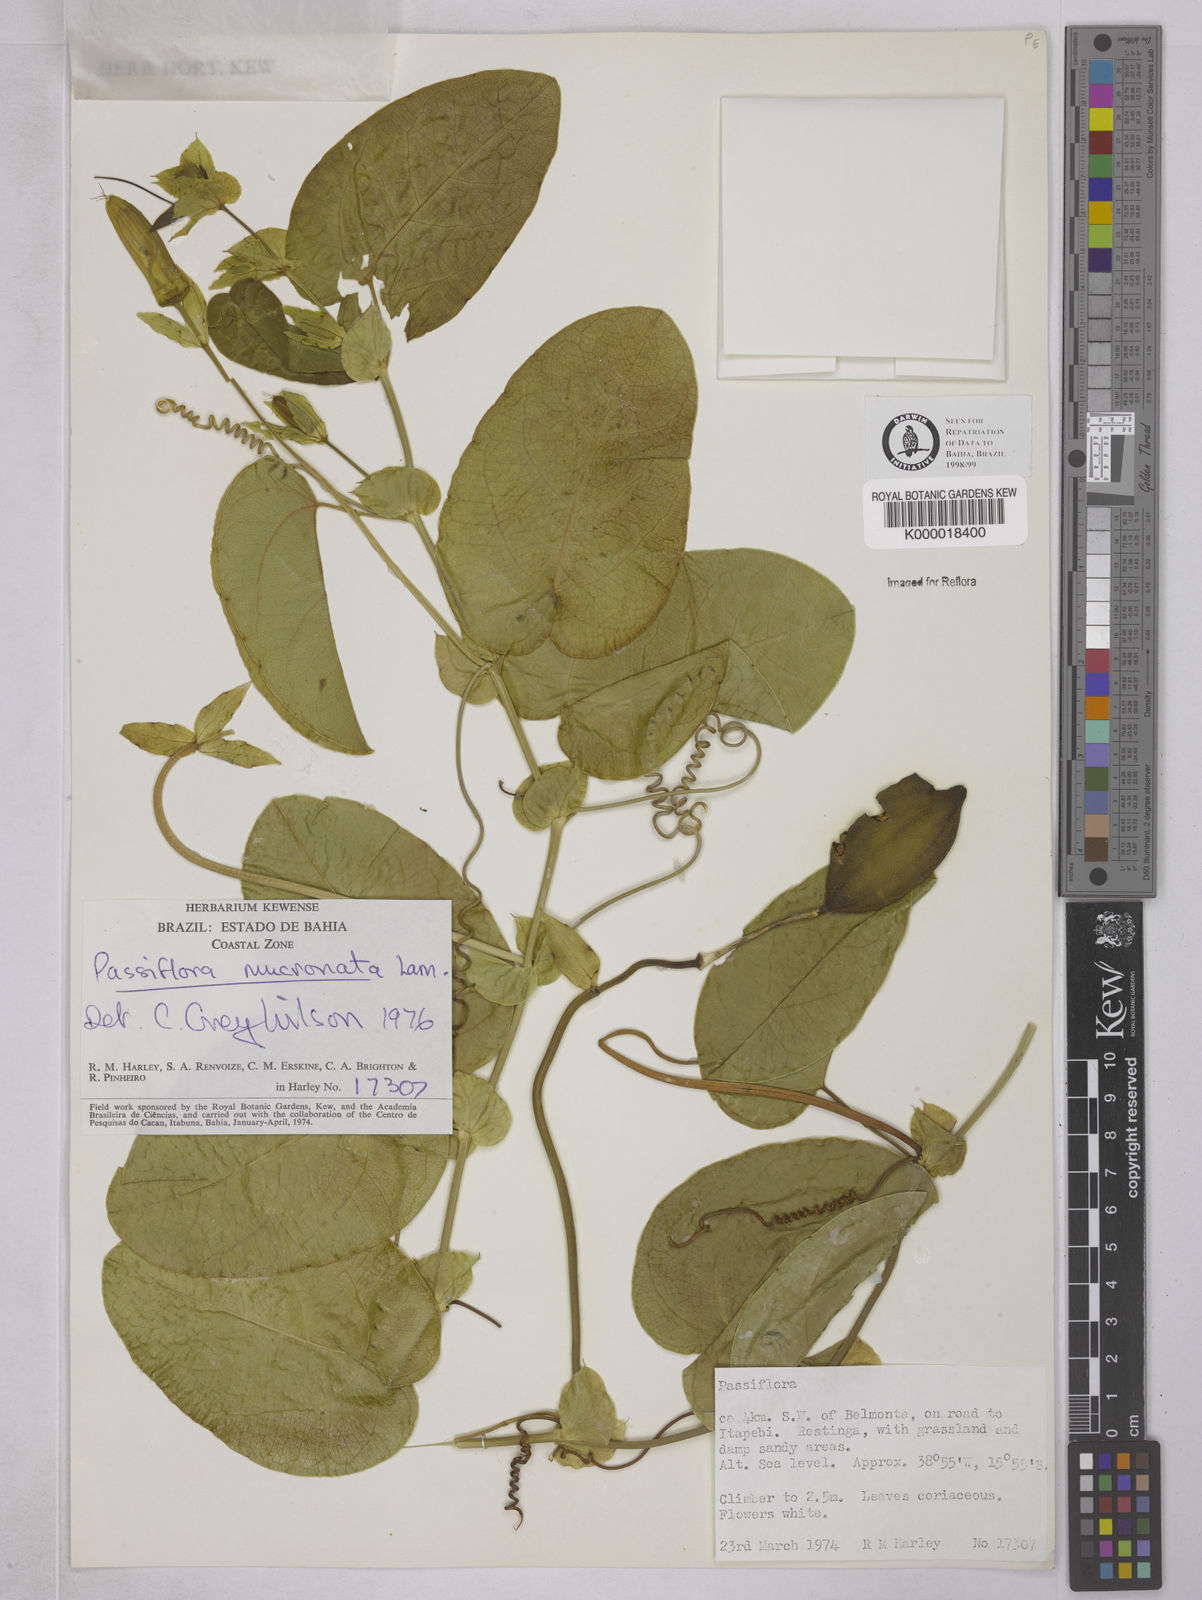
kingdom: Plantae
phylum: Tracheophyta
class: Magnoliopsida
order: Malpighiales
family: Passifloraceae
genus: Passiflora
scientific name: Passiflora mucronata
